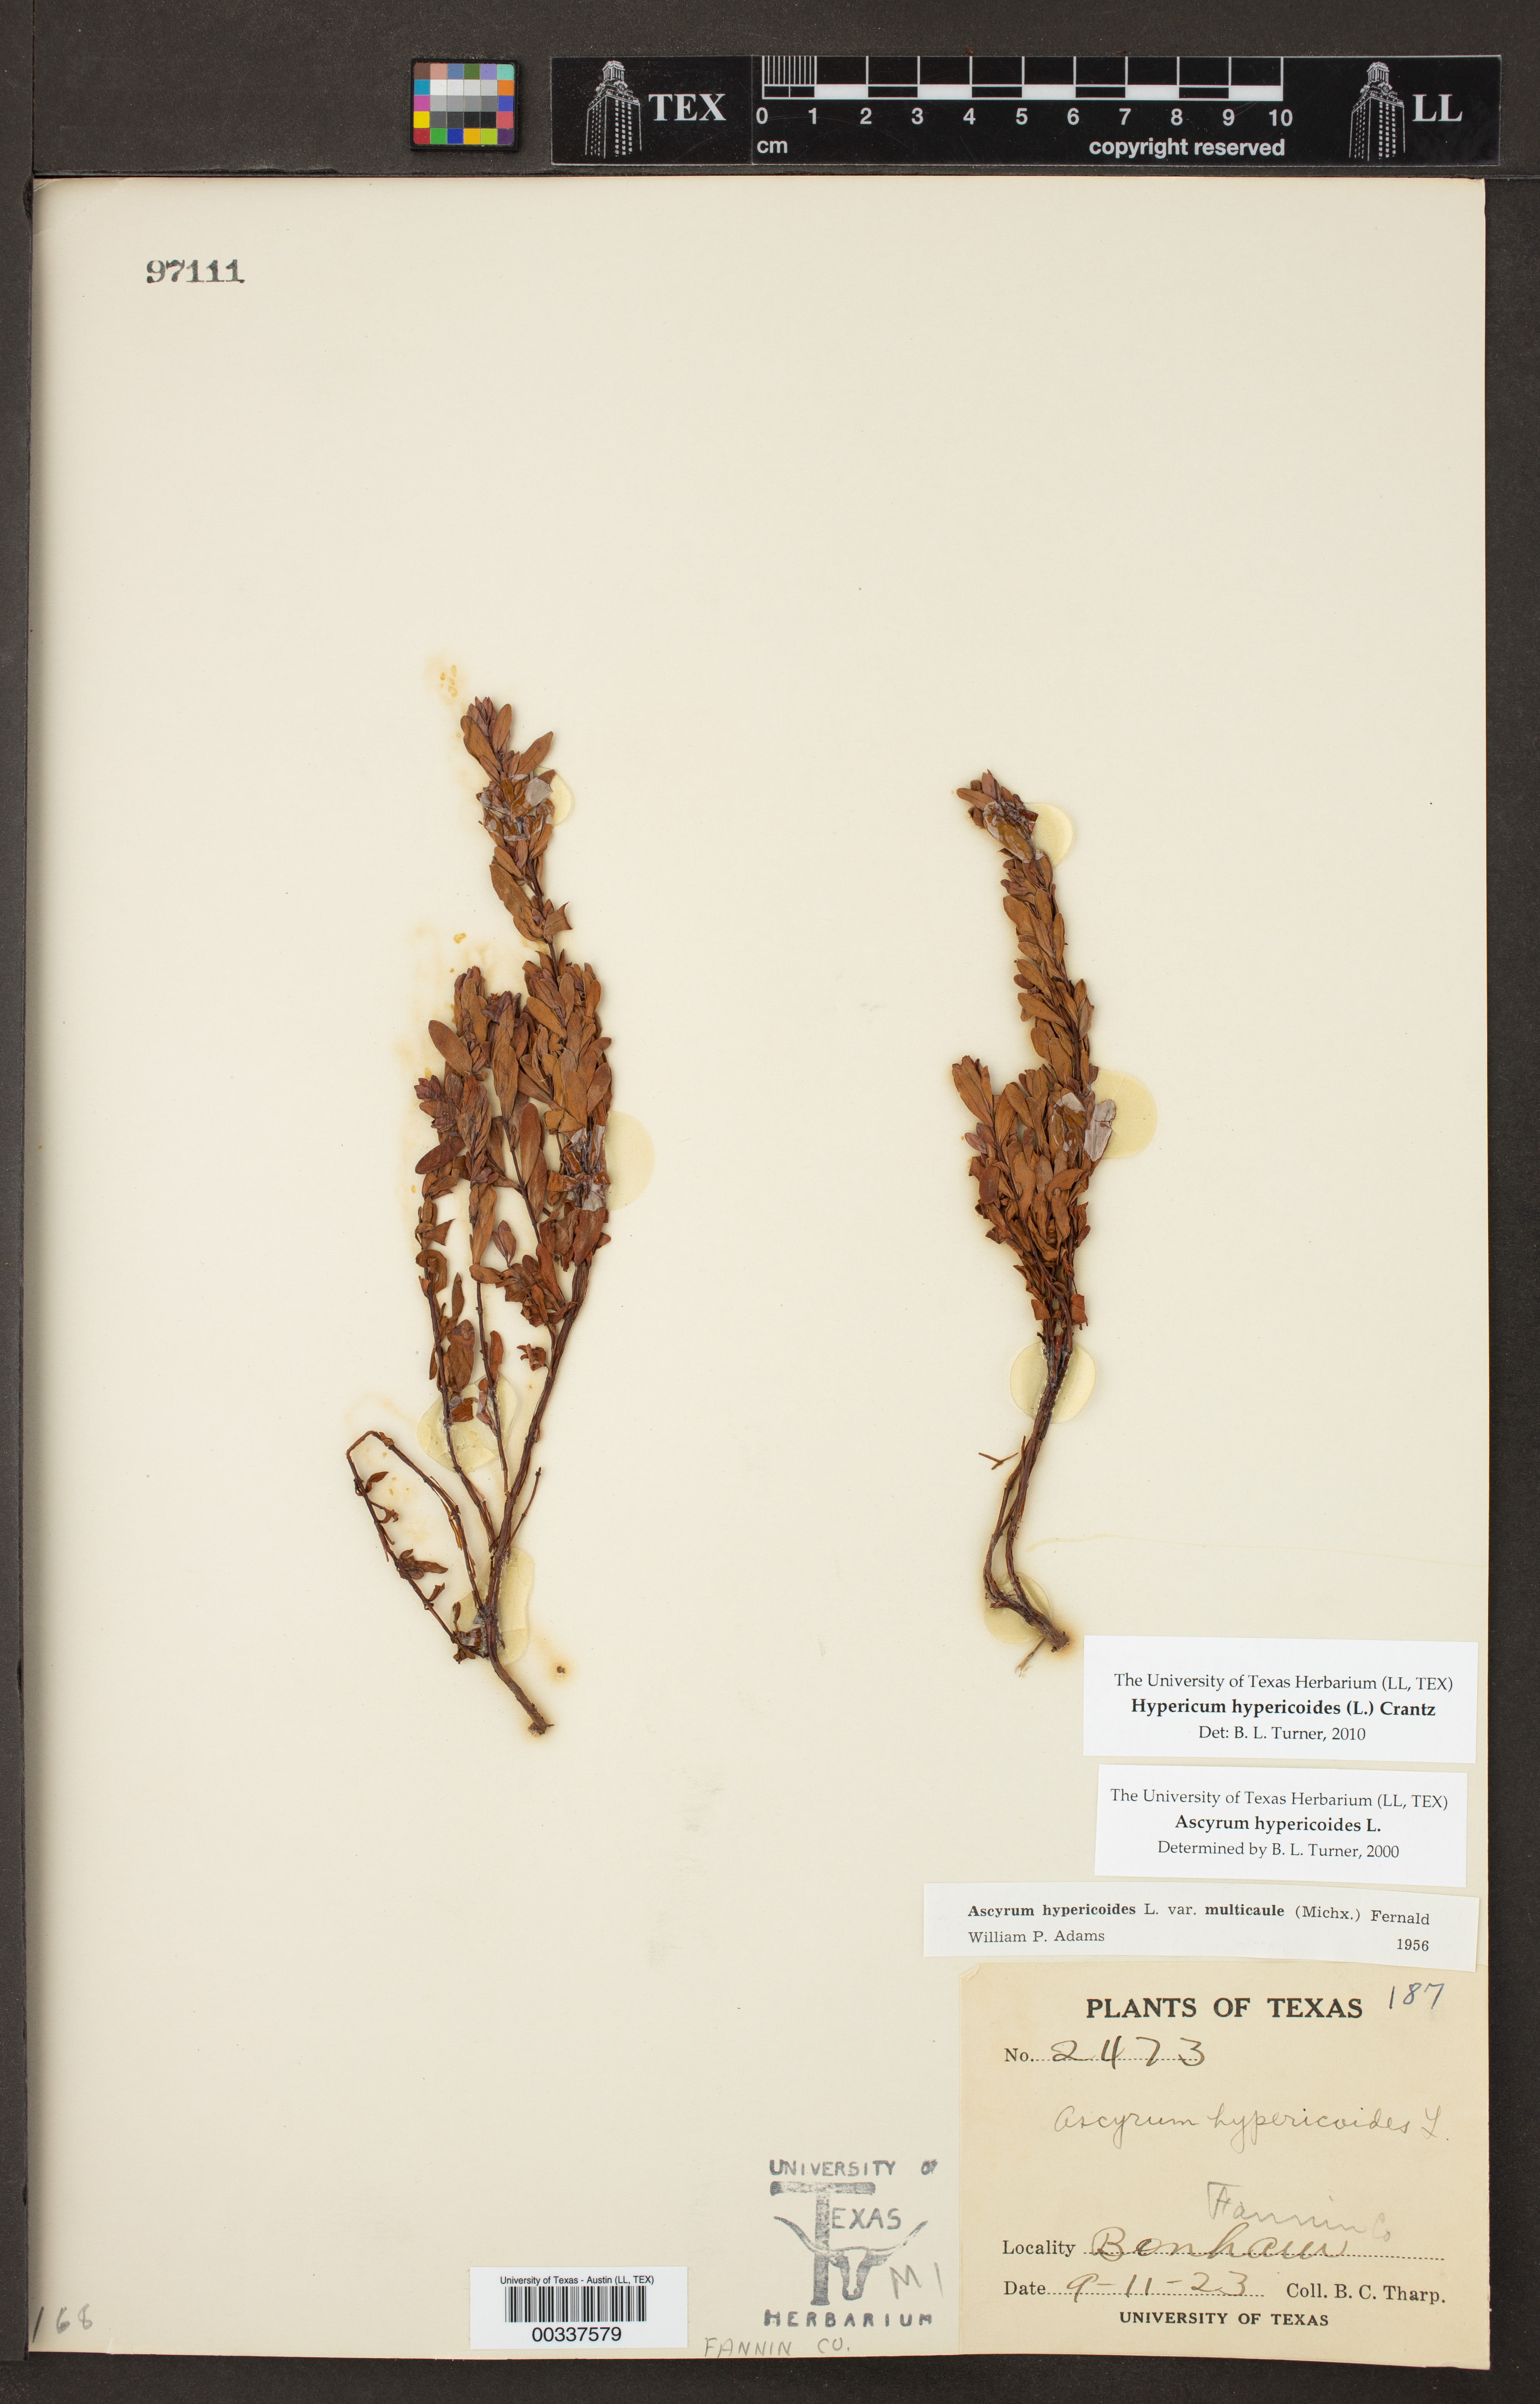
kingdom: Plantae
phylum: Tracheophyta
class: Magnoliopsida
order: Malpighiales
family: Hypericaceae
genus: Hypericum
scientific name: Hypericum hypericoides
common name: St. andrew's cross
